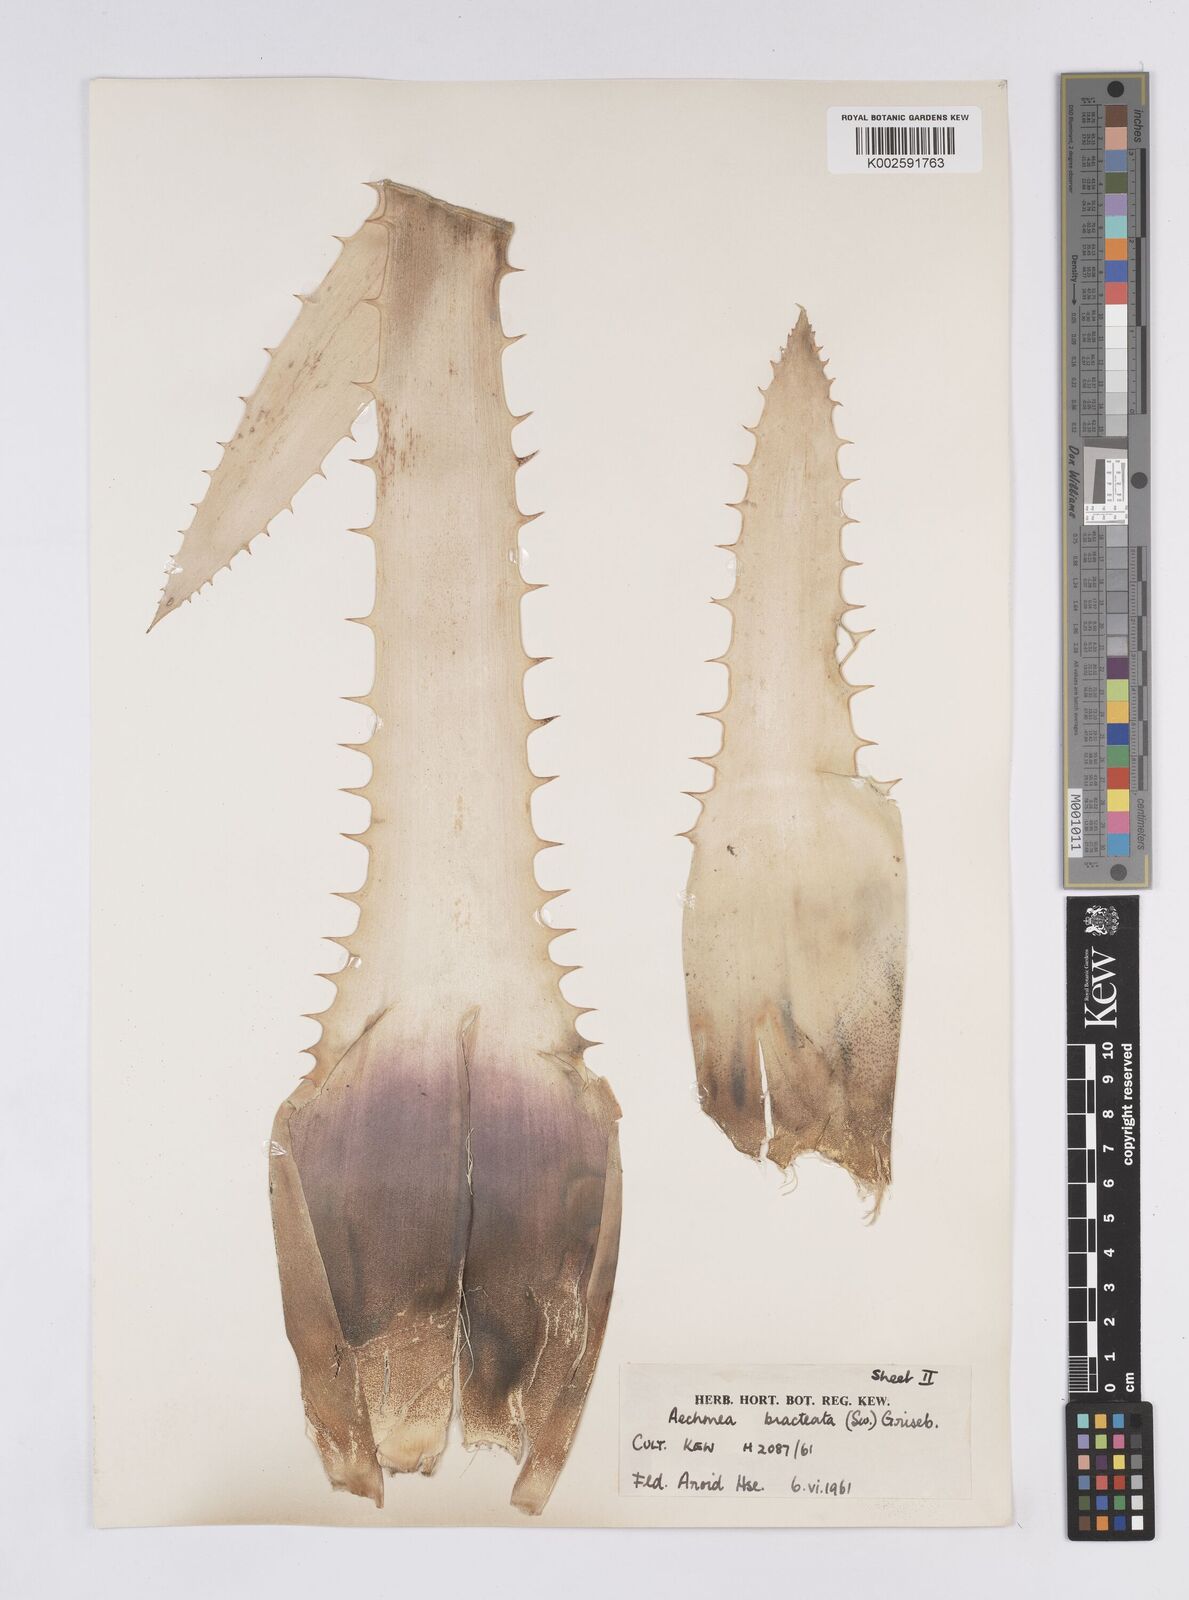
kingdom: Plantae
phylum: Tracheophyta
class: Liliopsida
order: Poales
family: Bromeliaceae
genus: Aechmea
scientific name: Aechmea bracteata
